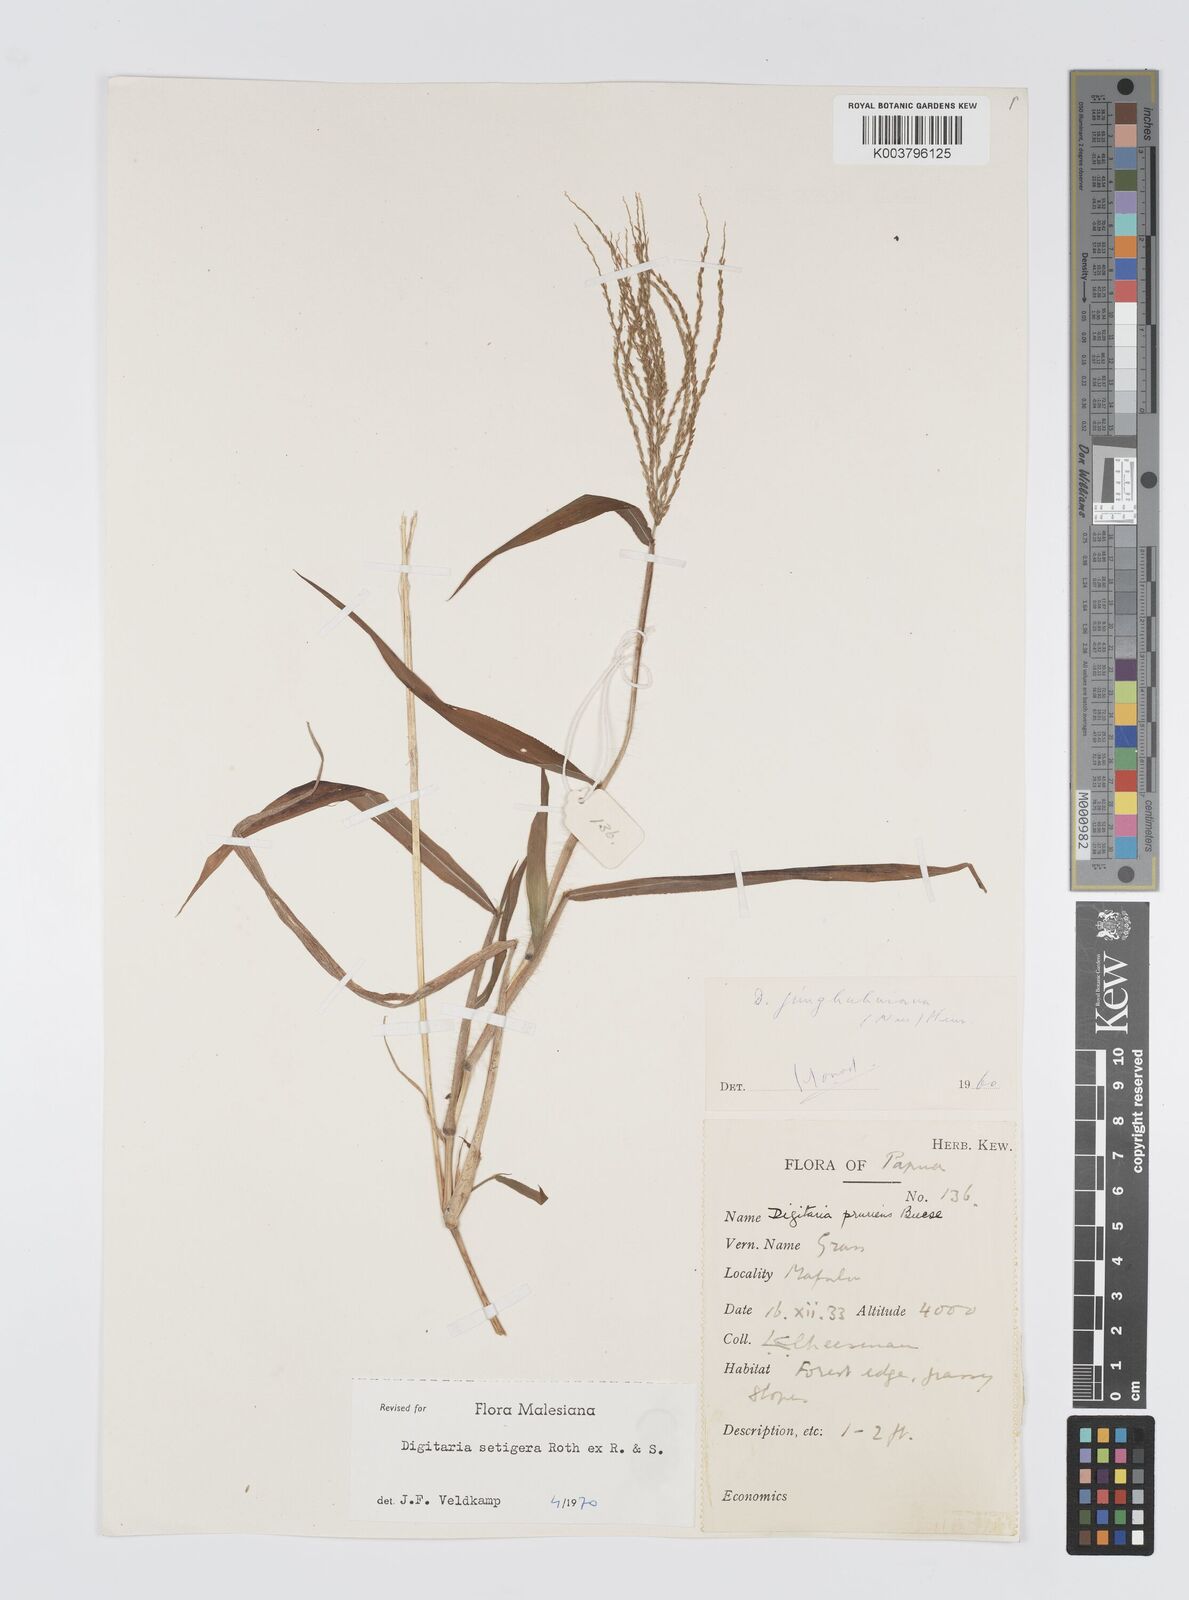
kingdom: Plantae
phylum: Tracheophyta
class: Liliopsida
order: Poales
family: Poaceae
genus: Digitaria
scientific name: Digitaria setigera
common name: East indian crabgrass
